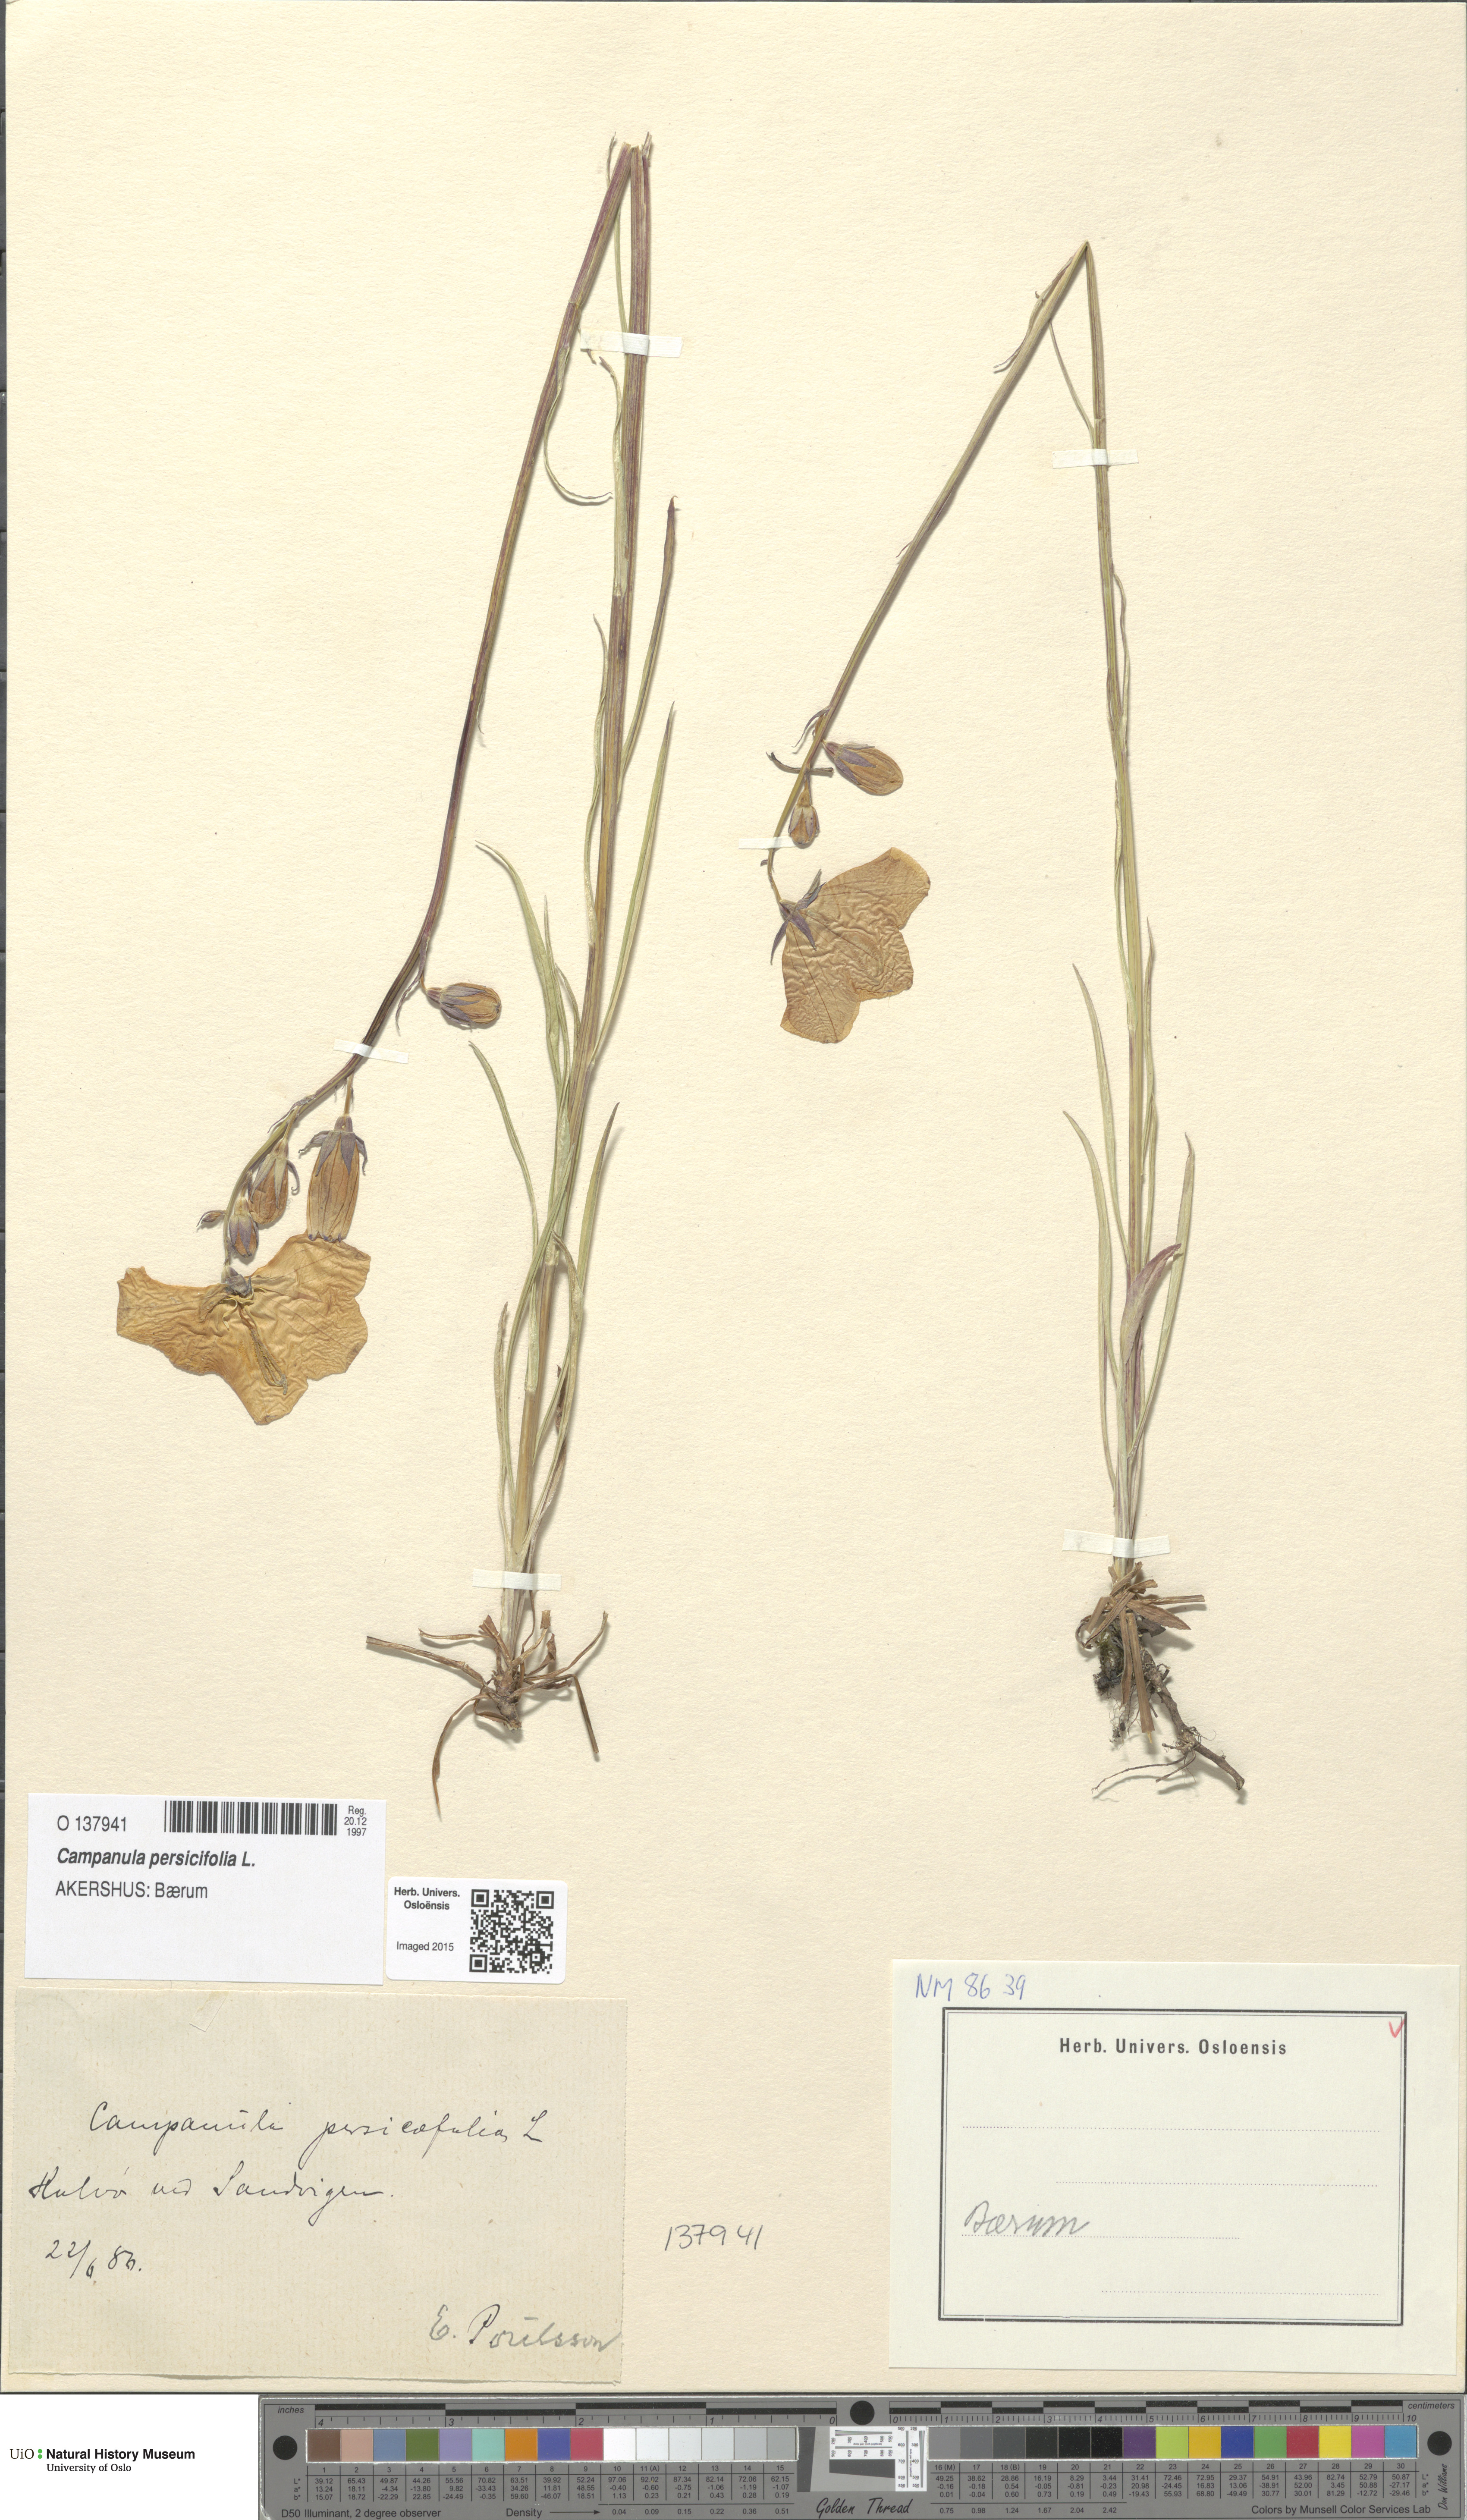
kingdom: Plantae
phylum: Tracheophyta
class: Magnoliopsida
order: Asterales
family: Campanulaceae
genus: Campanula
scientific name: Campanula persicifolia
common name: Peach-leaved bellflower
